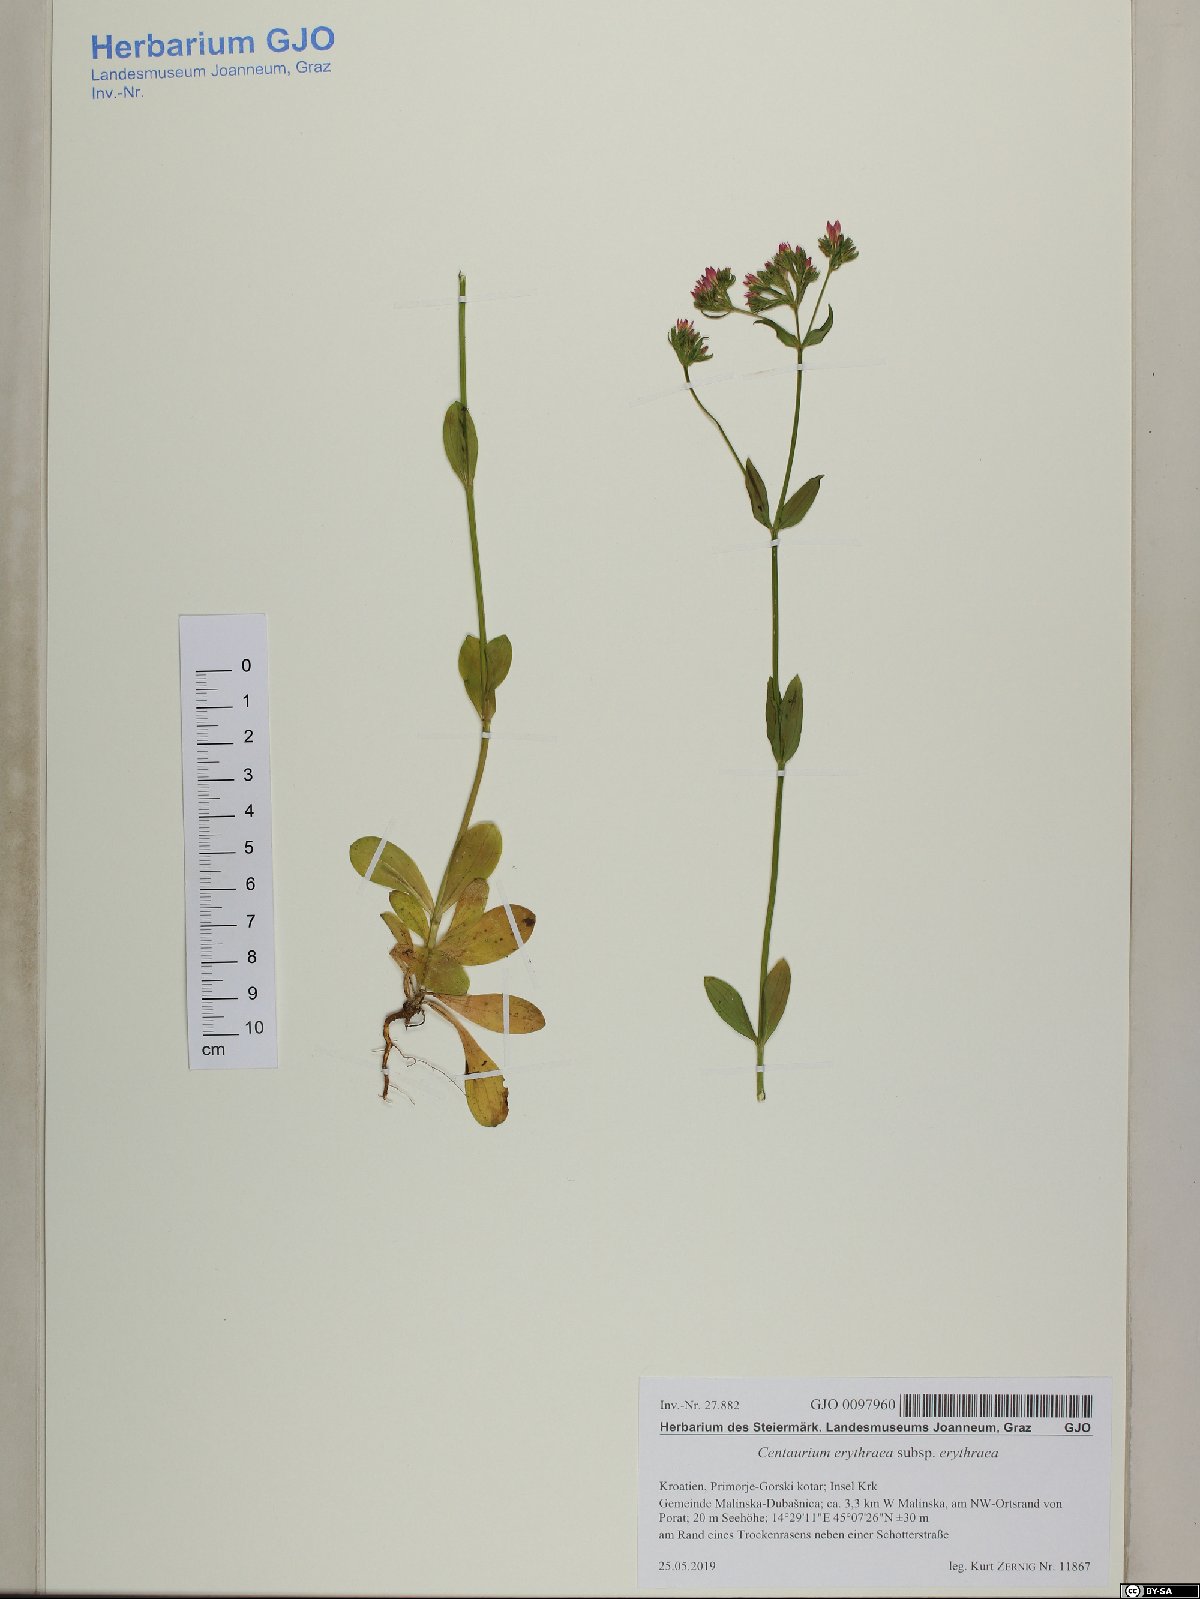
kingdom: Plantae
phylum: Tracheophyta
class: Magnoliopsida
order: Gentianales
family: Gentianaceae
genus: Centaurium
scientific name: Centaurium erythraea
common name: Common centaury
